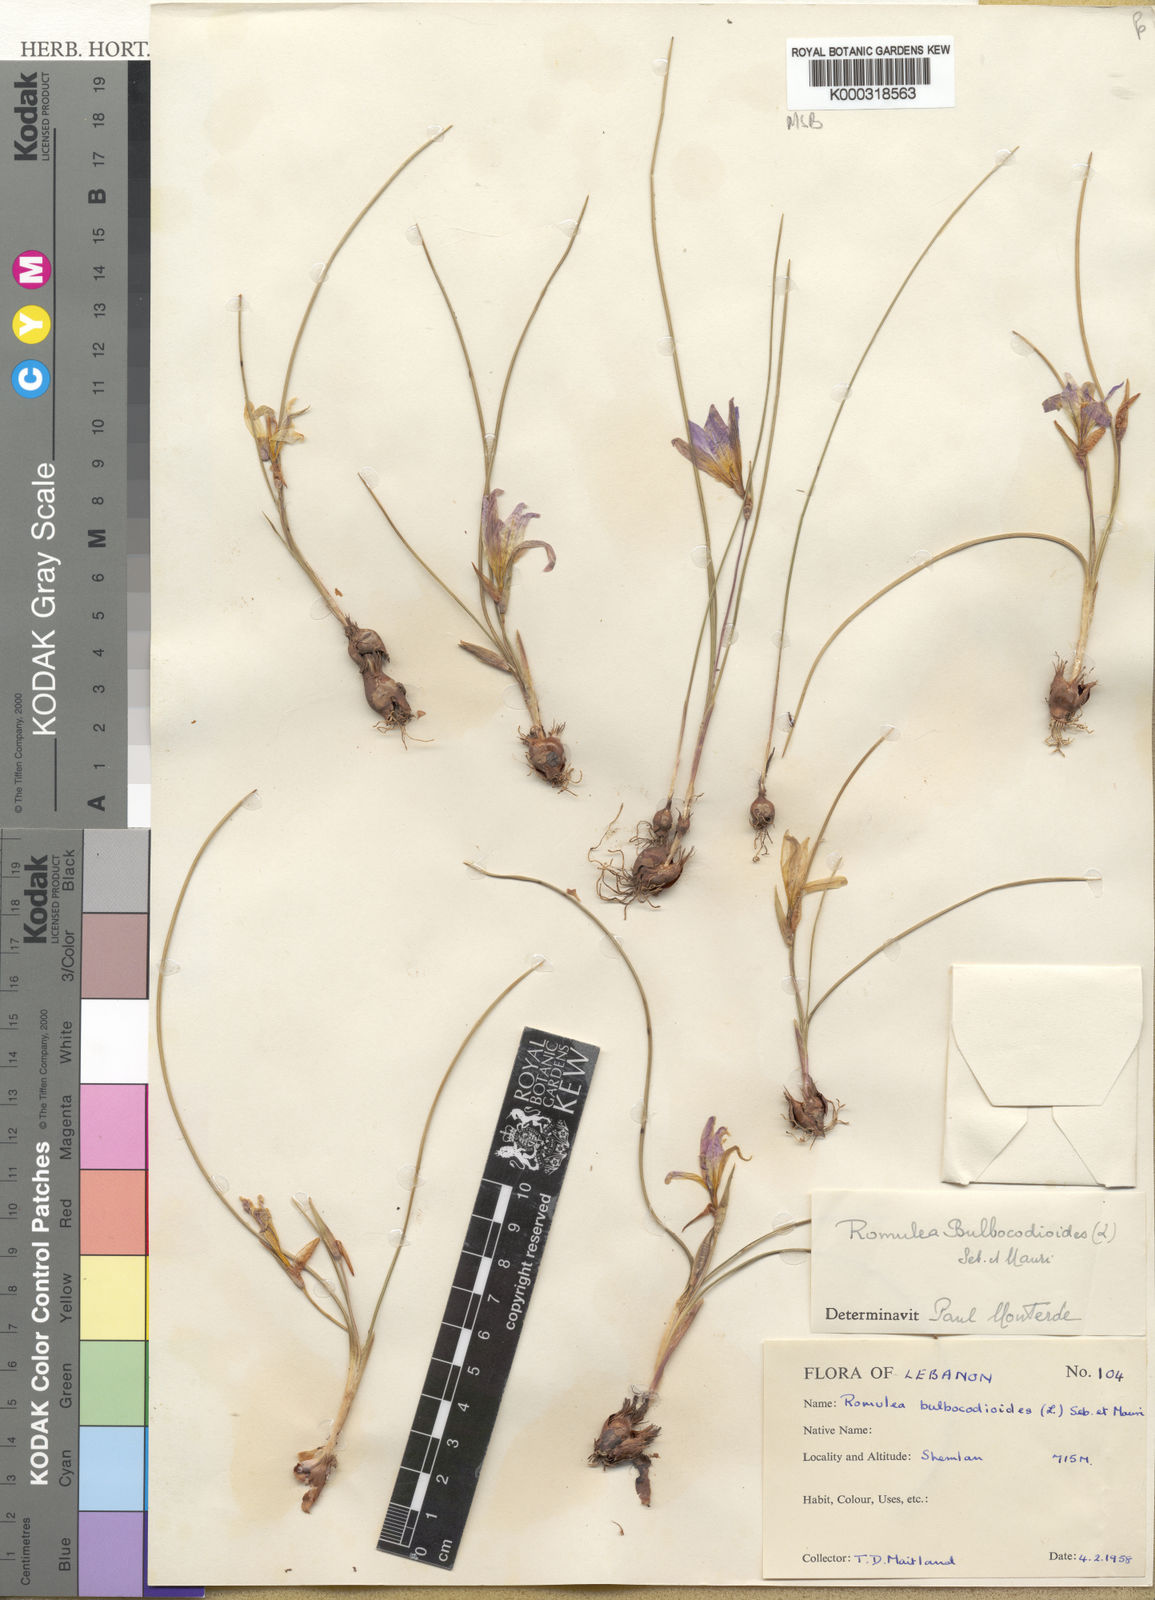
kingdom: Plantae
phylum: Tracheophyta
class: Liliopsida
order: Asparagales
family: Iridaceae
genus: Romulea
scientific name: Romulea bulbocodium
